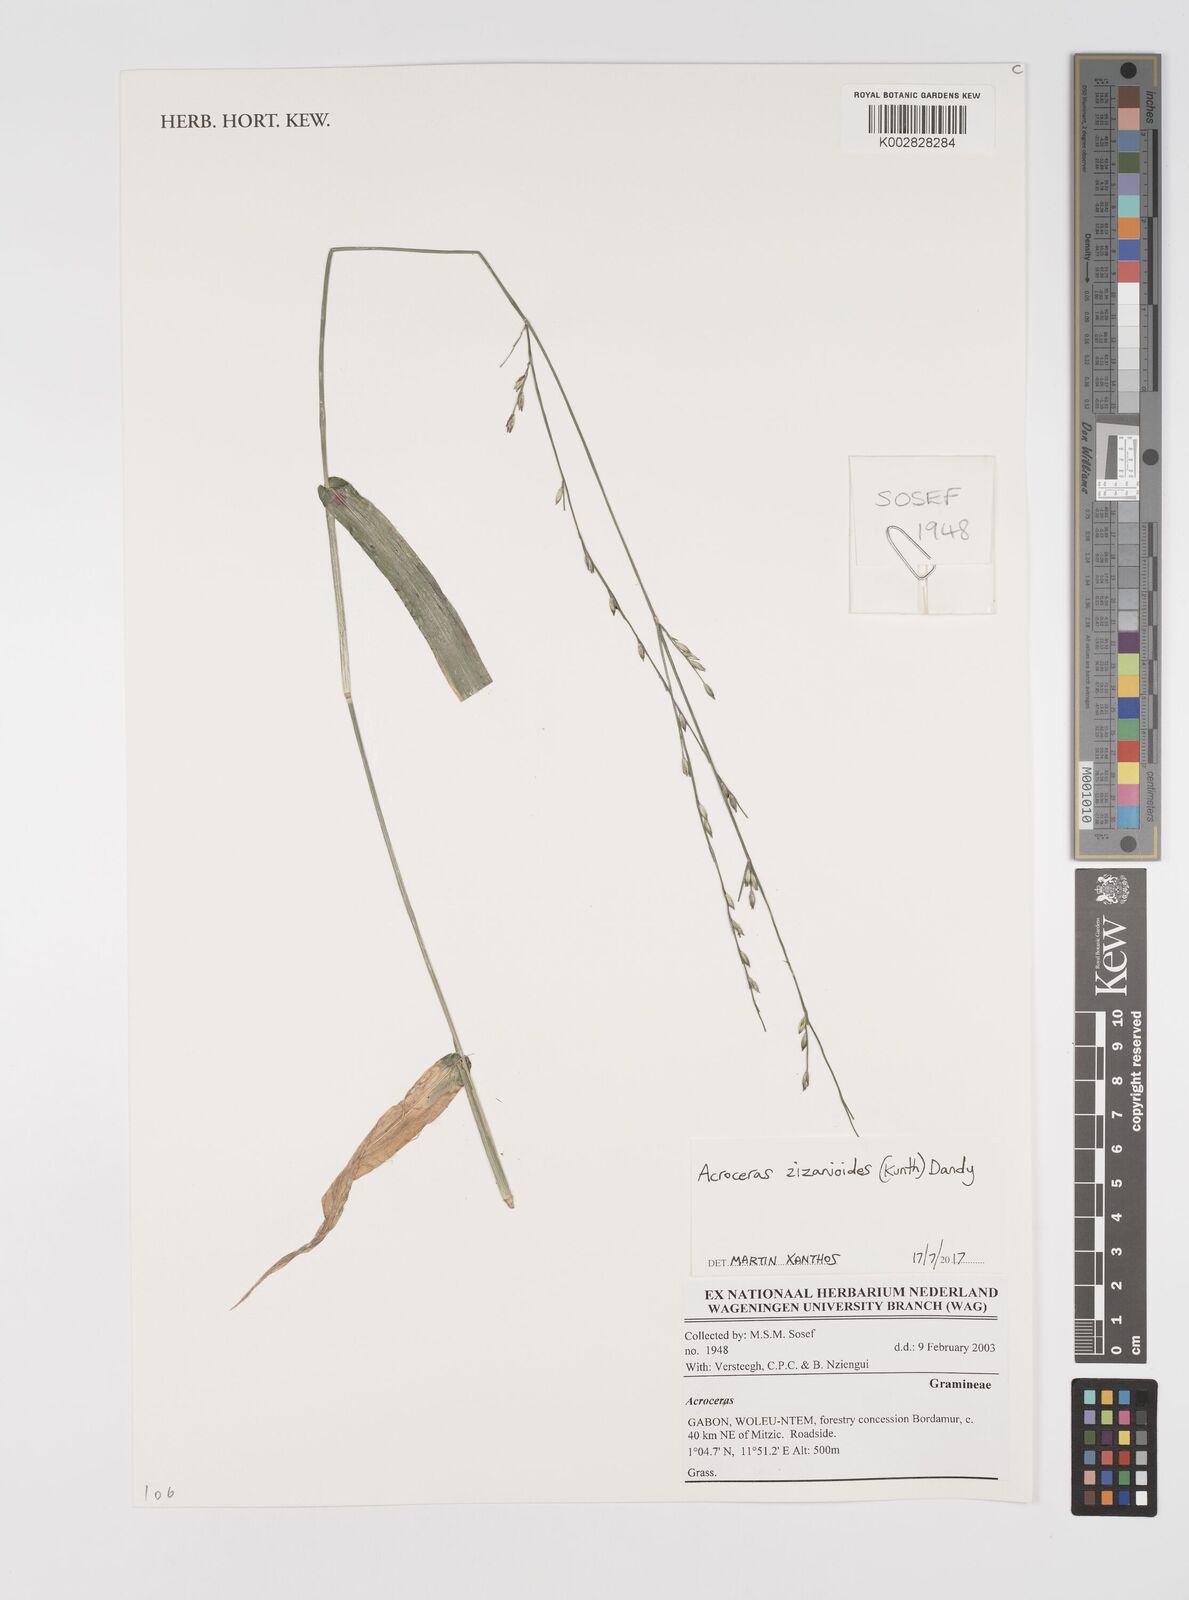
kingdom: Plantae
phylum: Tracheophyta
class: Liliopsida
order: Poales
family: Poaceae
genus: Acroceras
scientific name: Acroceras zizanioides
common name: Oat grass
